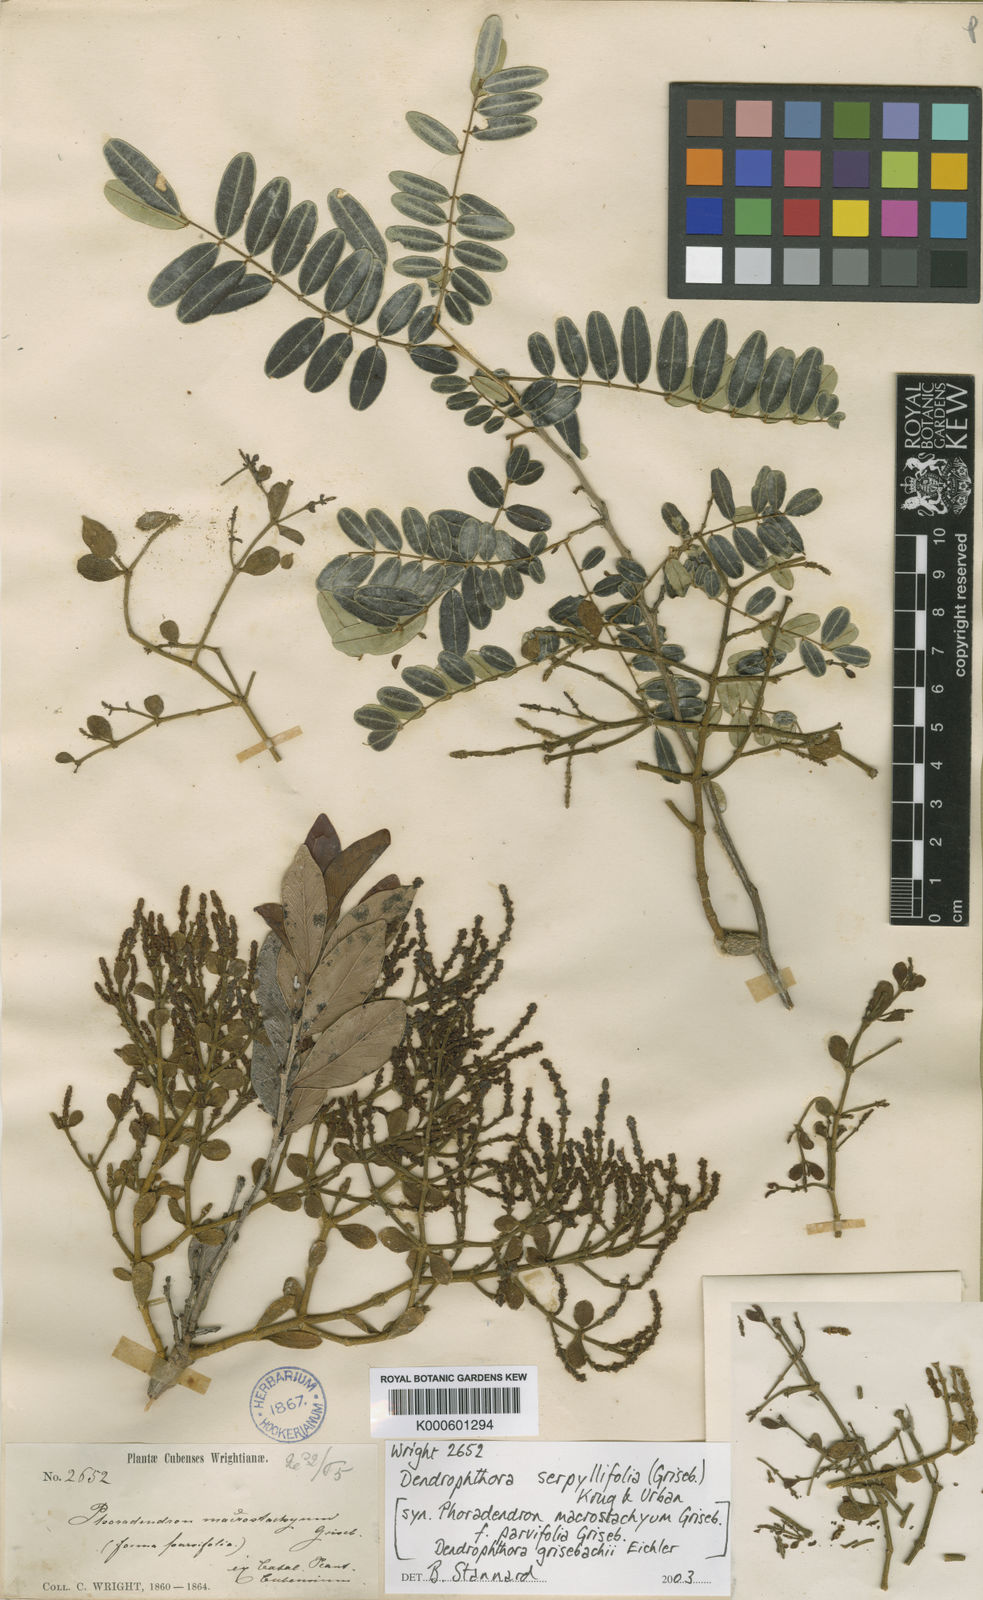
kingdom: Plantae
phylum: Tracheophyta
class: Magnoliopsida
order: Santalales
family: Viscaceae
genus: Dendrophthora
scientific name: Dendrophthora serpyllifolia
